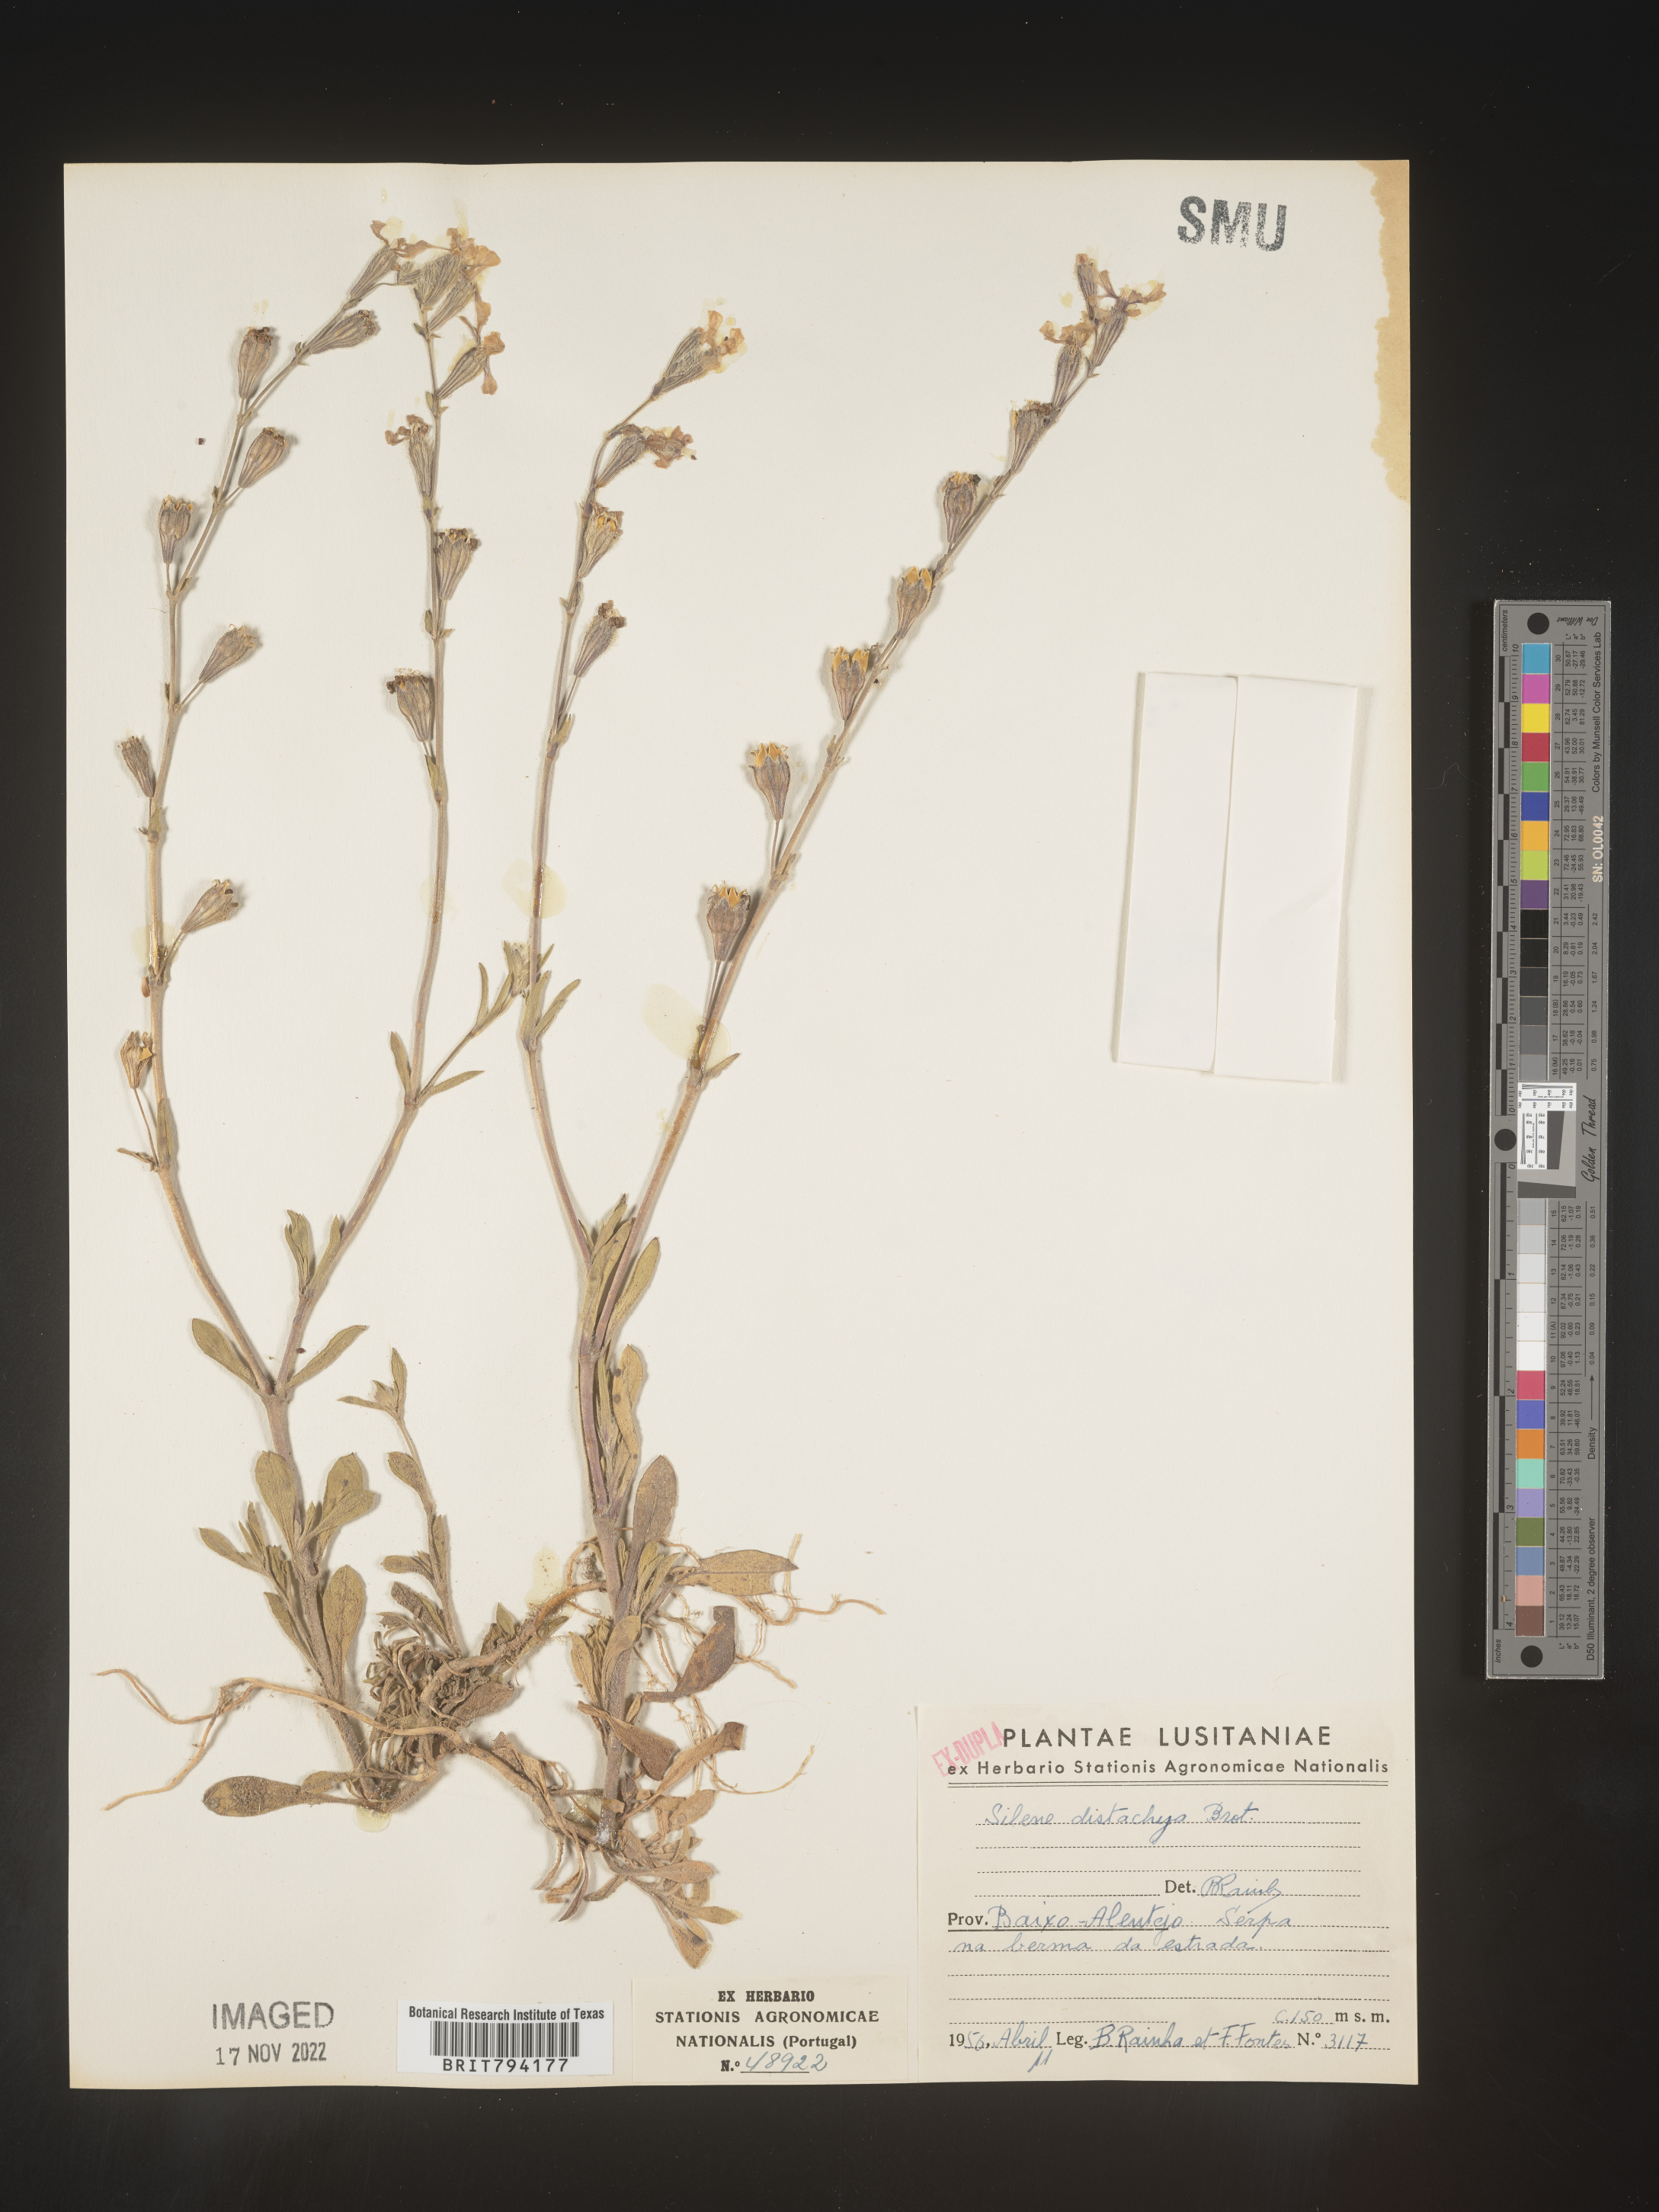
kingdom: Plantae
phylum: Tracheophyta
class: Magnoliopsida
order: Caryophyllales
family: Caryophyllaceae
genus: Silene
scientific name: Silene colorata
